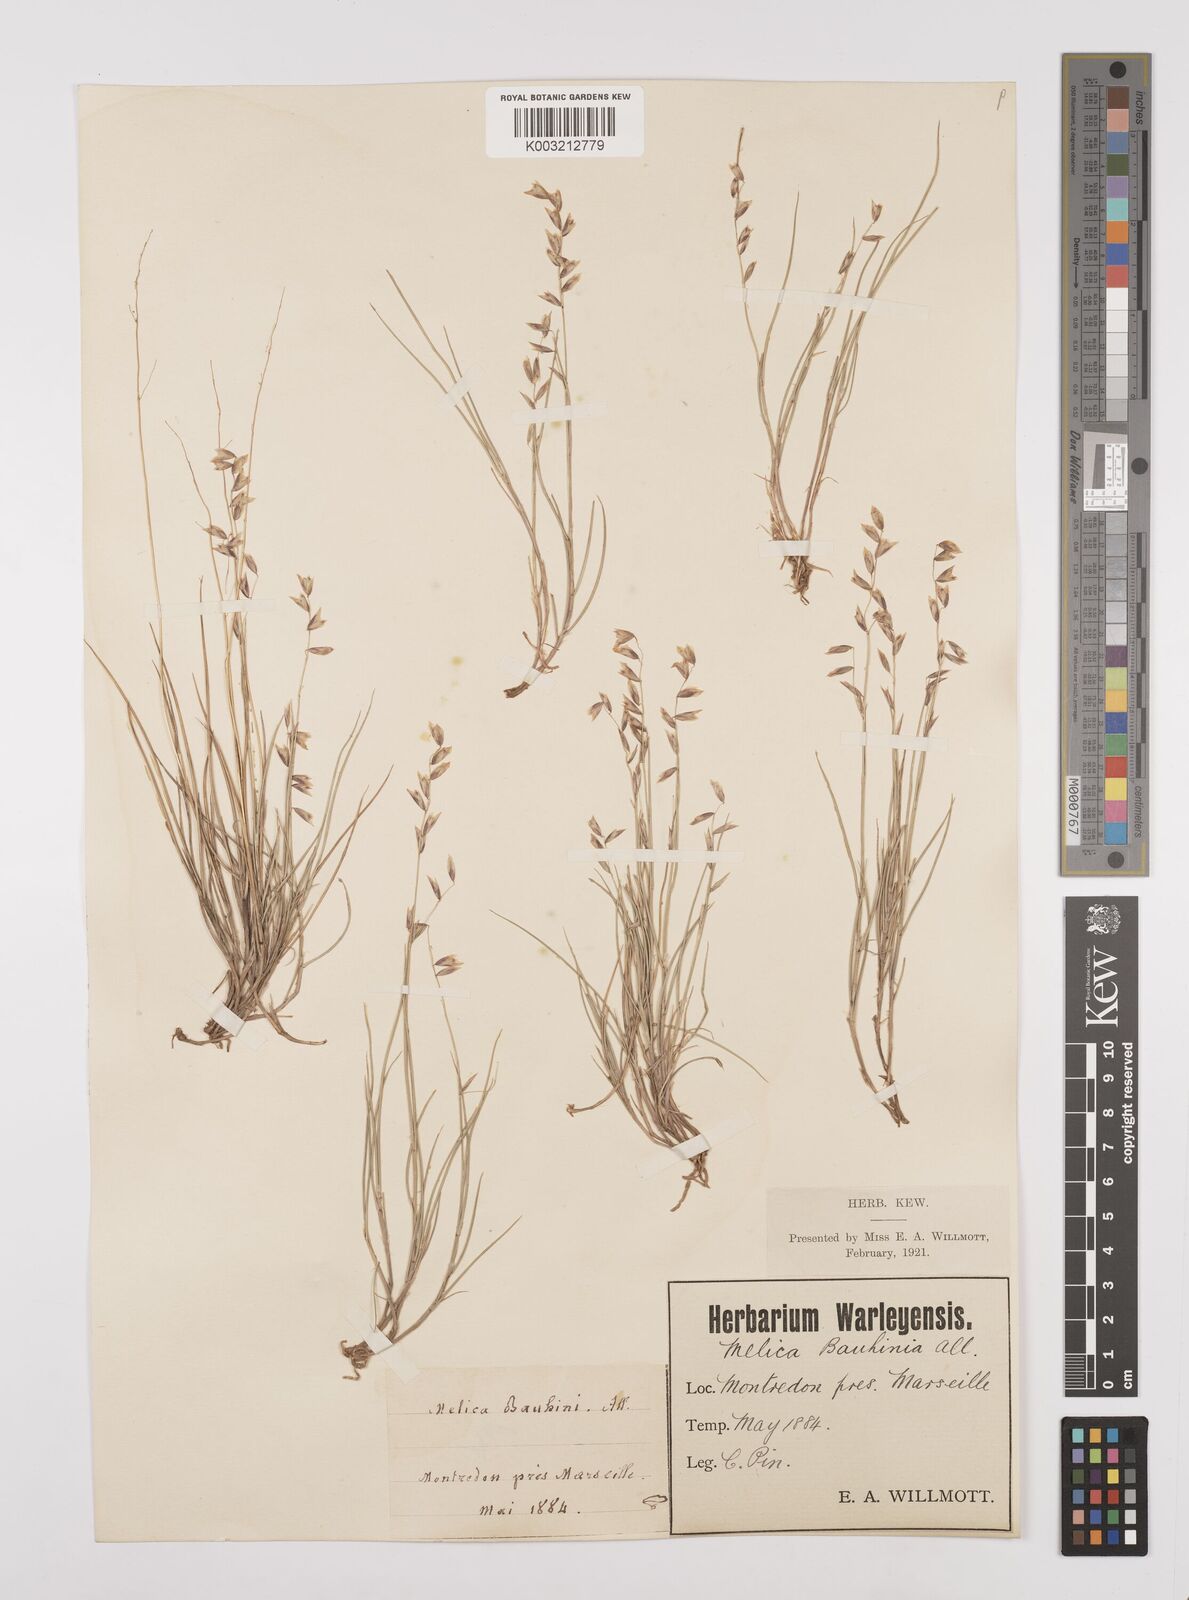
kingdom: Plantae
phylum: Tracheophyta
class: Liliopsida
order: Poales
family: Poaceae
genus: Melica
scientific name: Melica minuta
